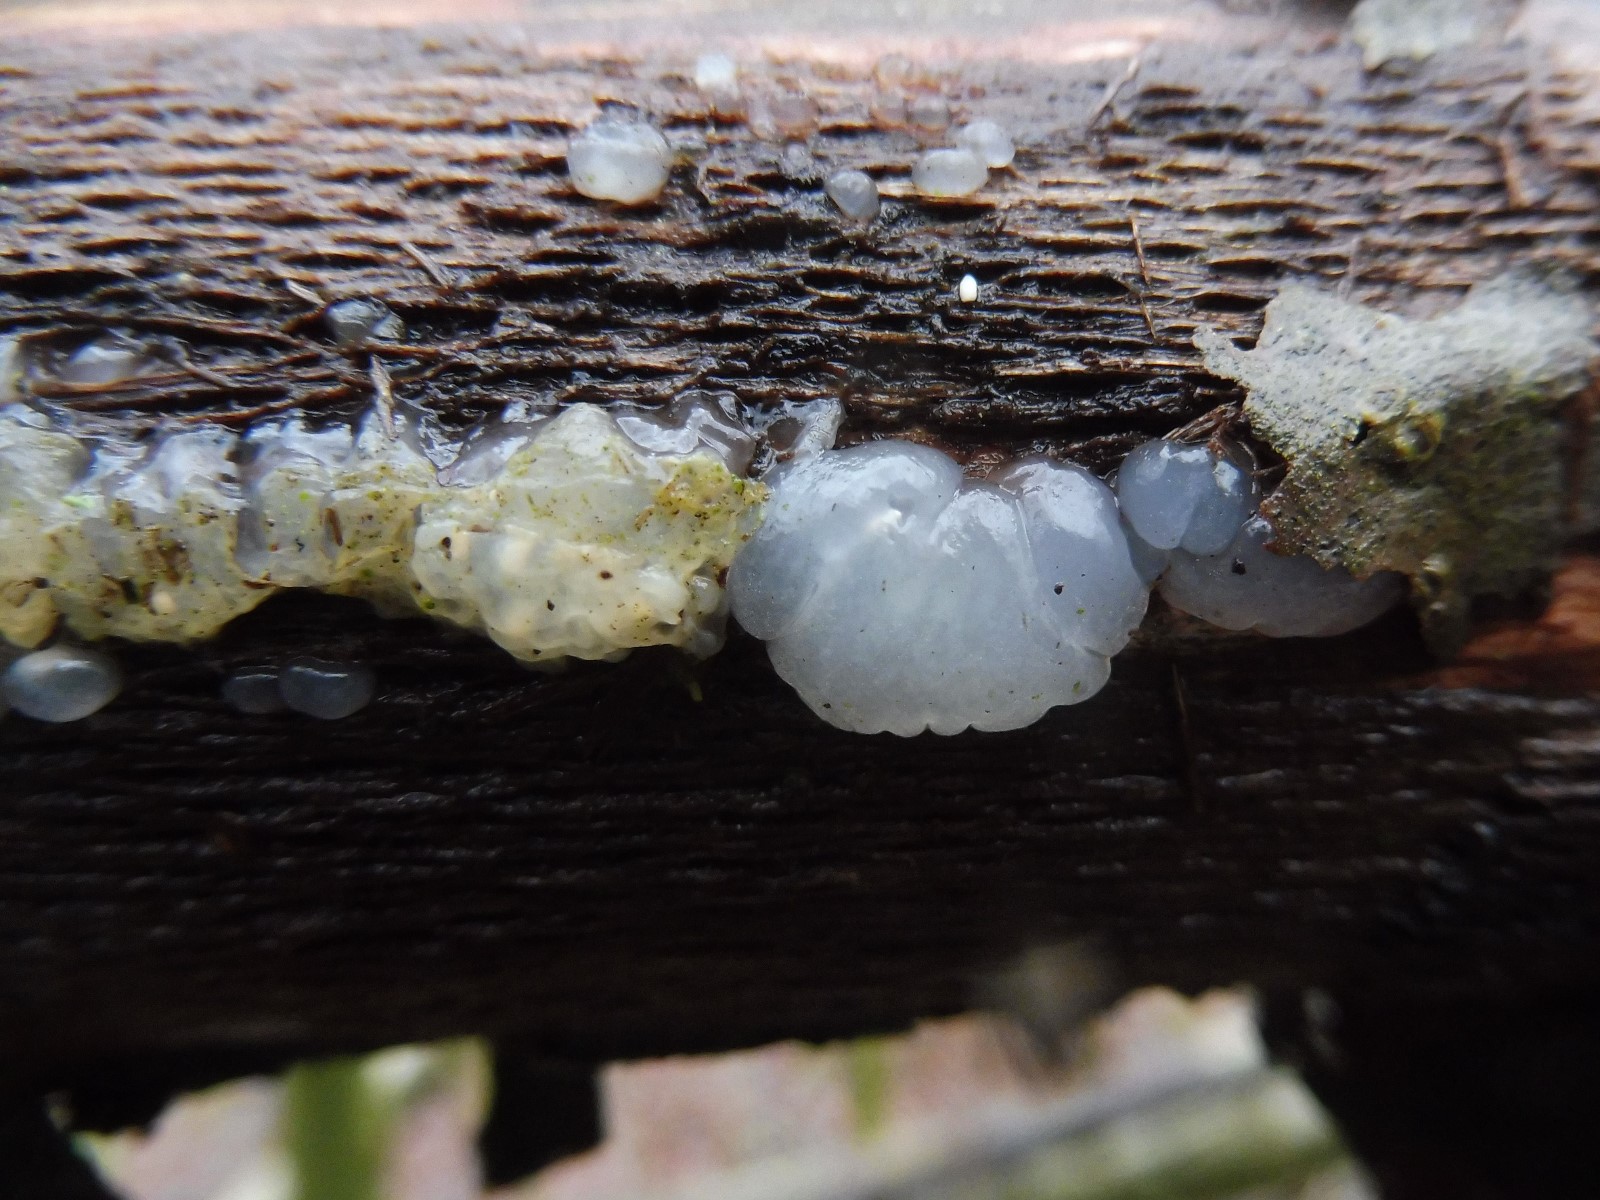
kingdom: Fungi
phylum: Basidiomycota
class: Agaricomycetes
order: Auriculariales
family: Hyaloriaceae
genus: Myxarium
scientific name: Myxarium nucleatum
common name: klar bævretop
